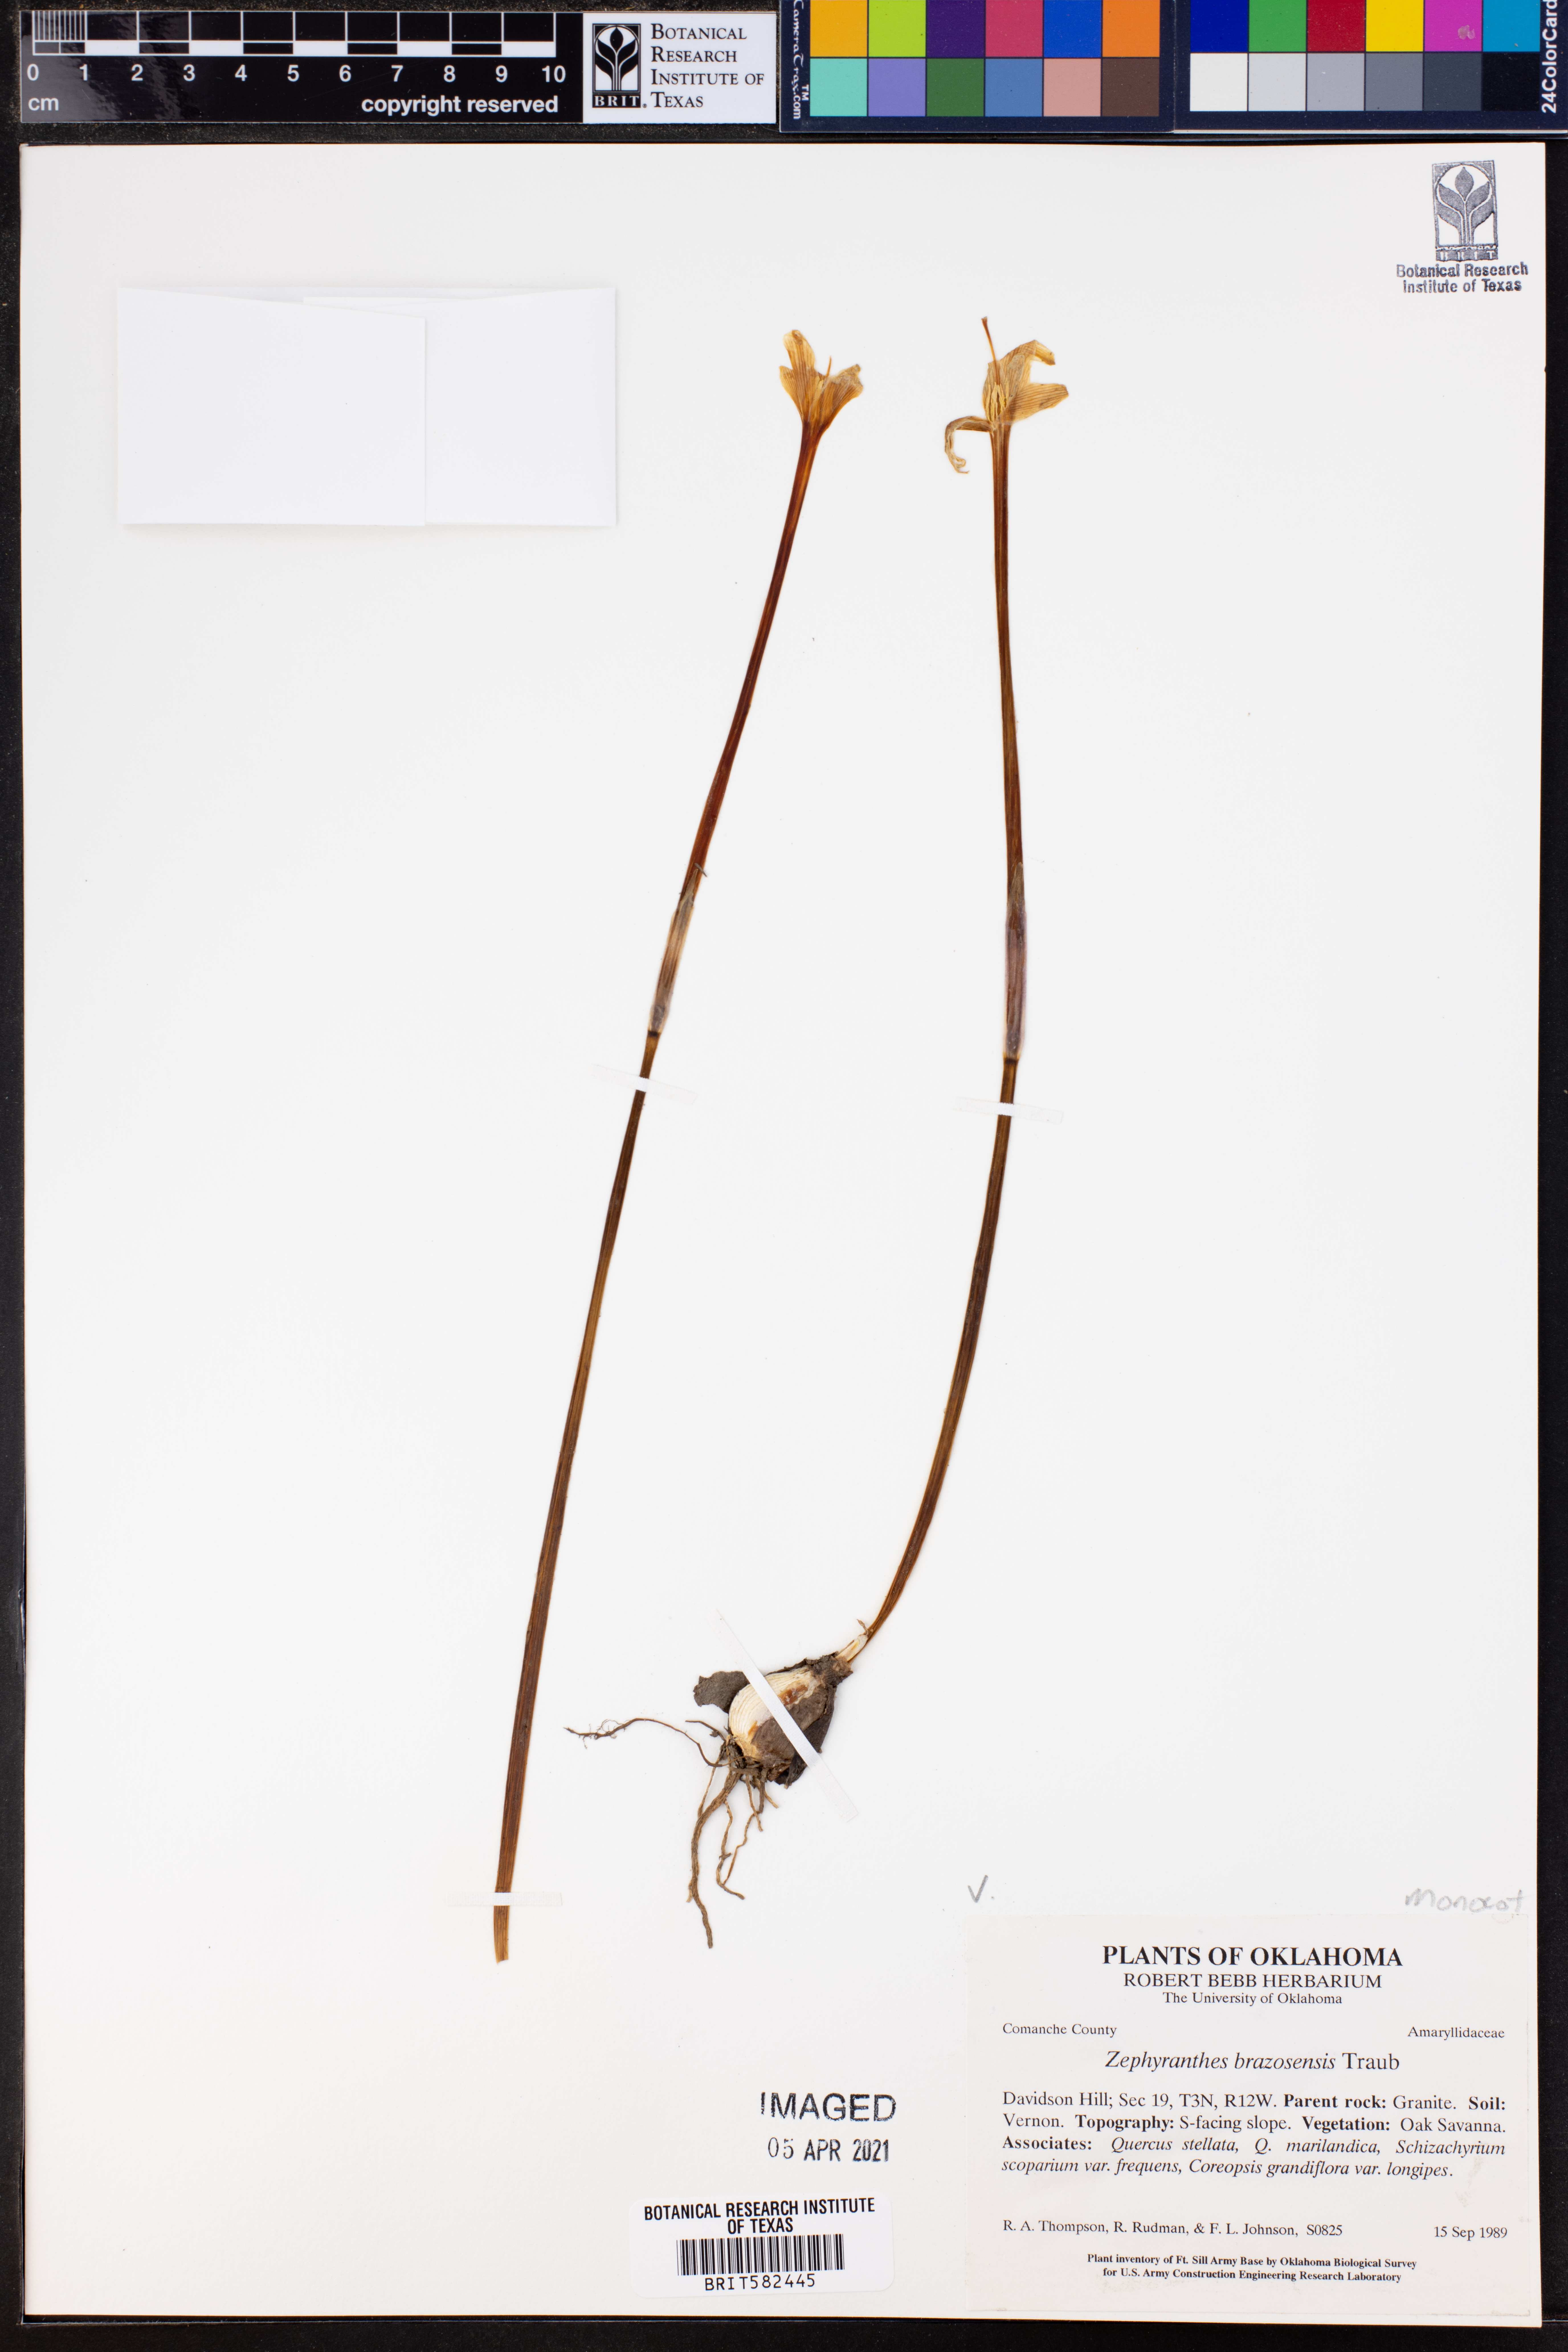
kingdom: Plantae
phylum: Tracheophyta
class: Liliopsida
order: Asparagales
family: Amaryllidaceae
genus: Zephyranthes
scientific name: Zephyranthes chlorosolen
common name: Evening rain-lily
